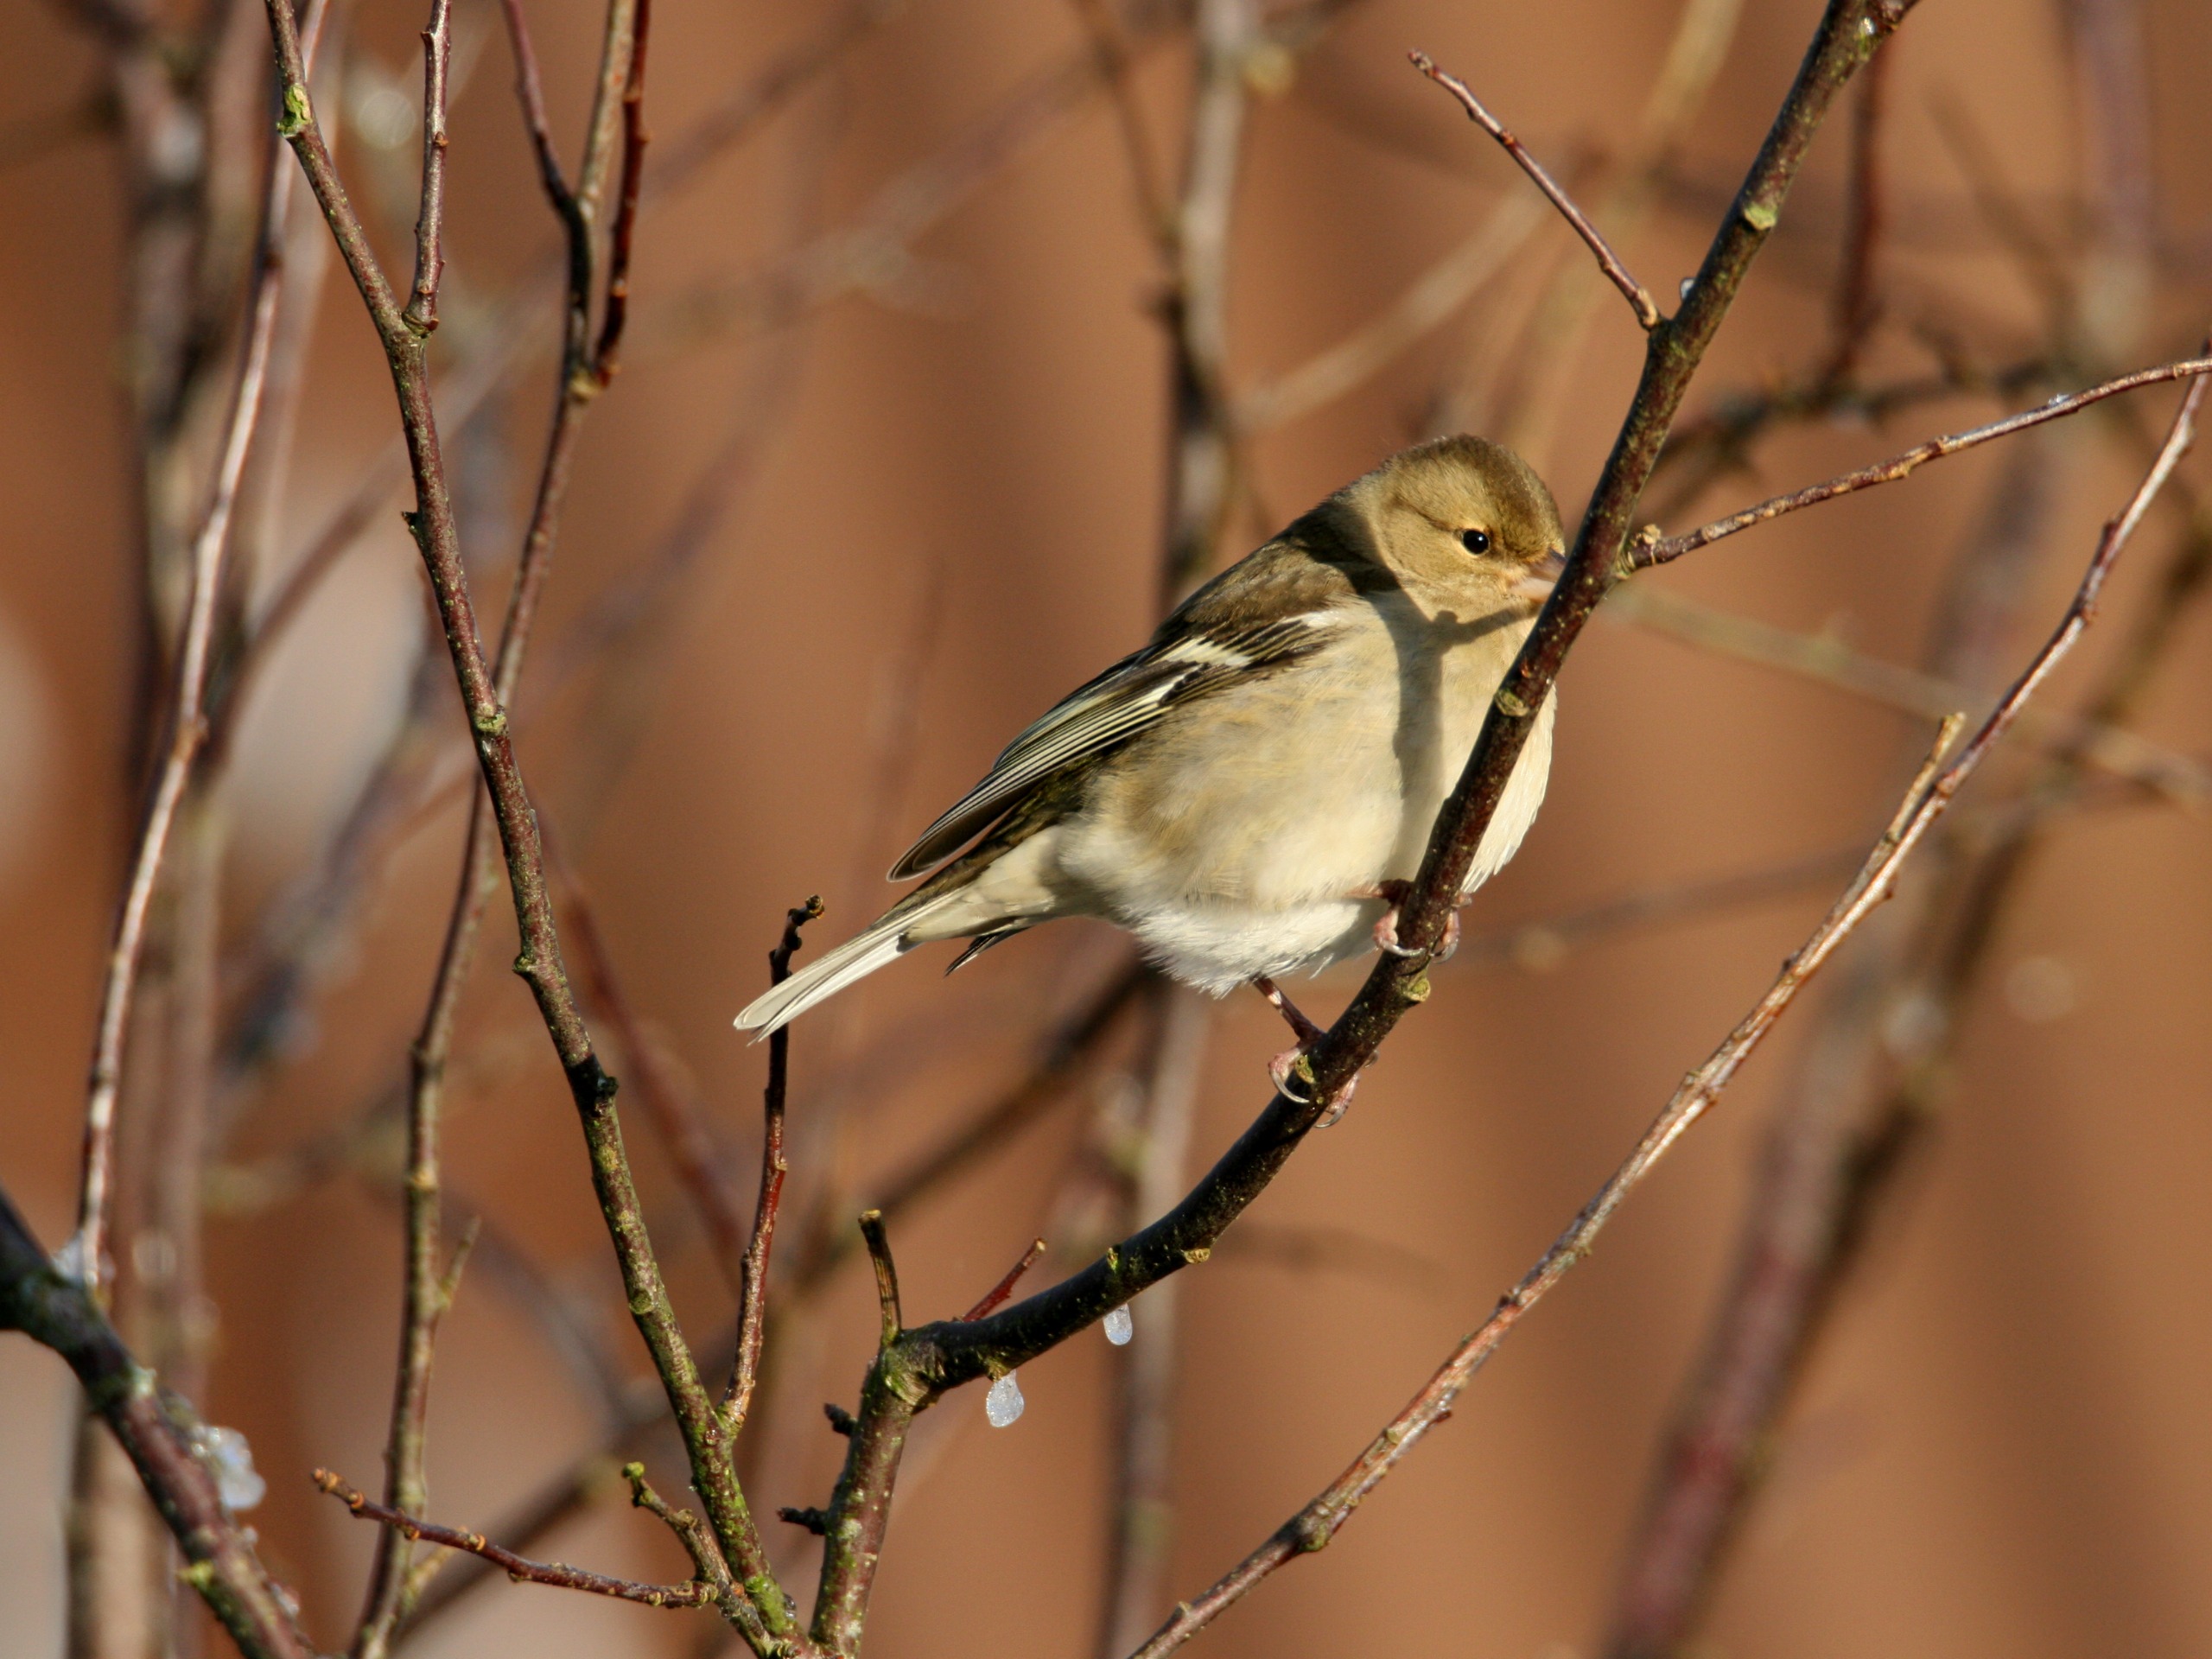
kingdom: Animalia
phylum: Chordata
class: Aves
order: Passeriformes
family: Fringillidae
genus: Fringilla
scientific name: Fringilla coelebs
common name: Bogfinke
